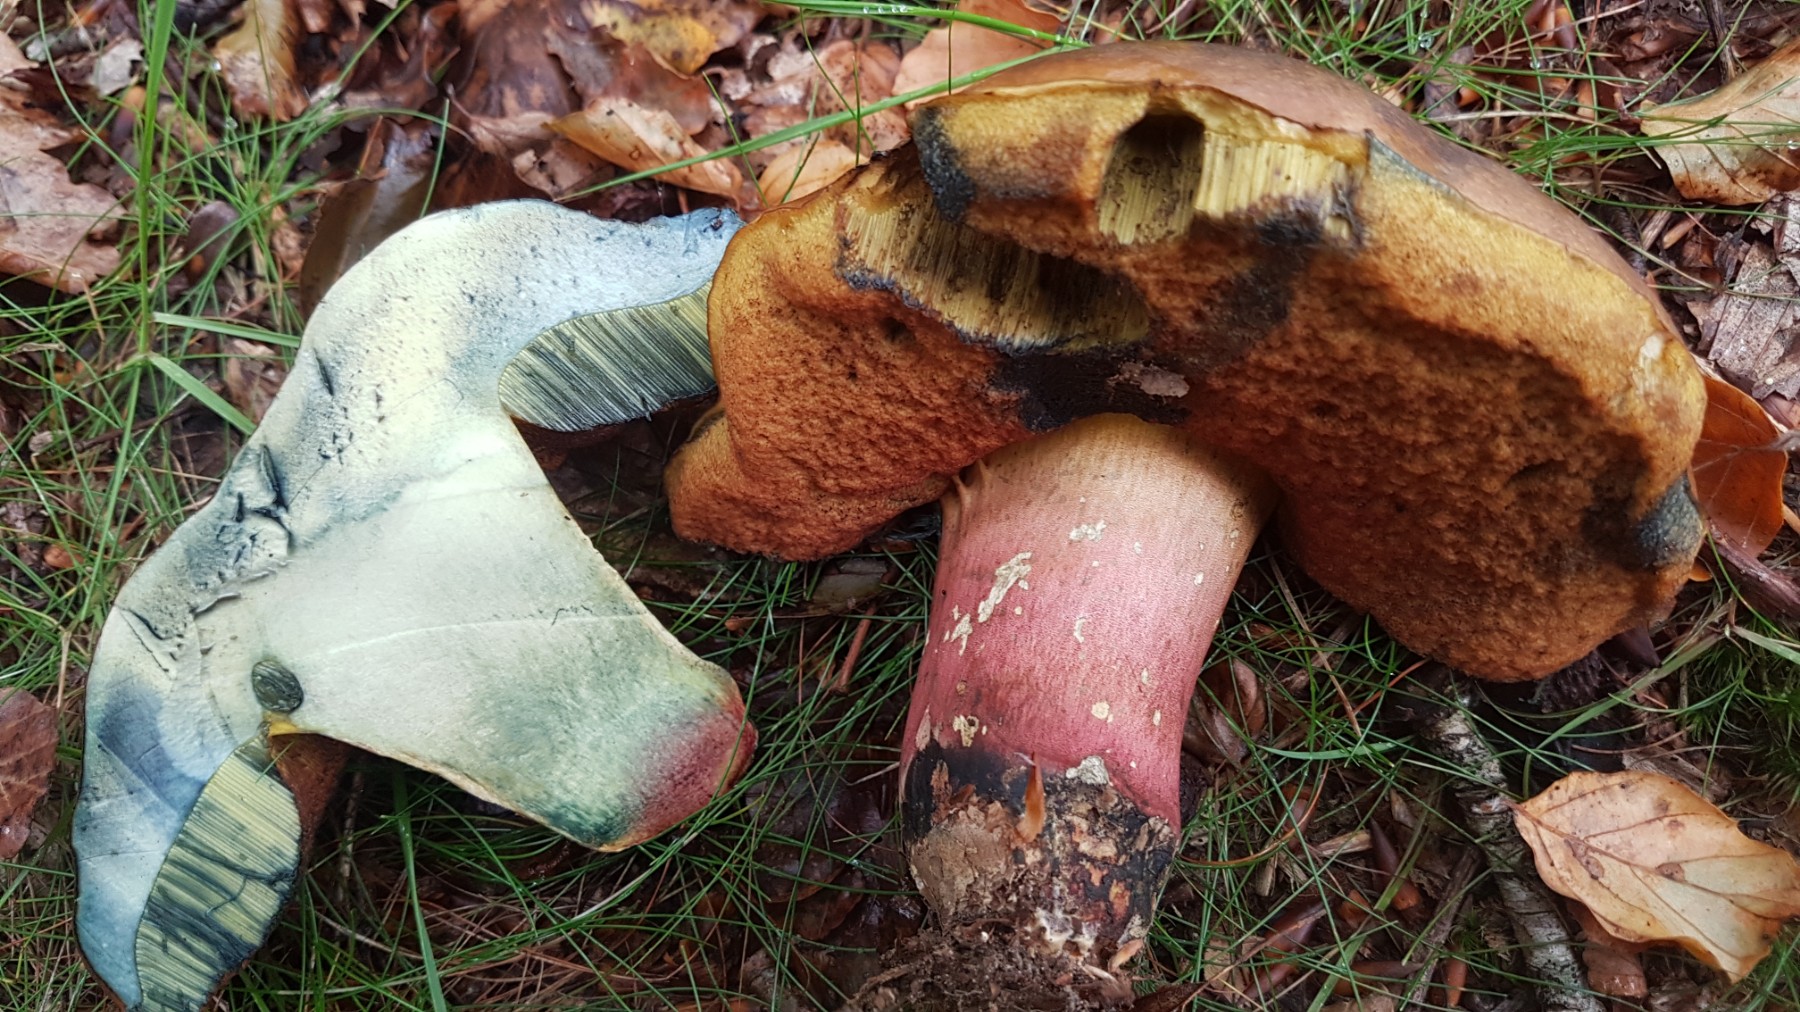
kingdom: Fungi
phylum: Basidiomycota
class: Agaricomycetes
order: Boletales
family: Boletaceae
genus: Neoboletus
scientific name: Neoboletus xanthopus
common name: finprikket indigorørhat
